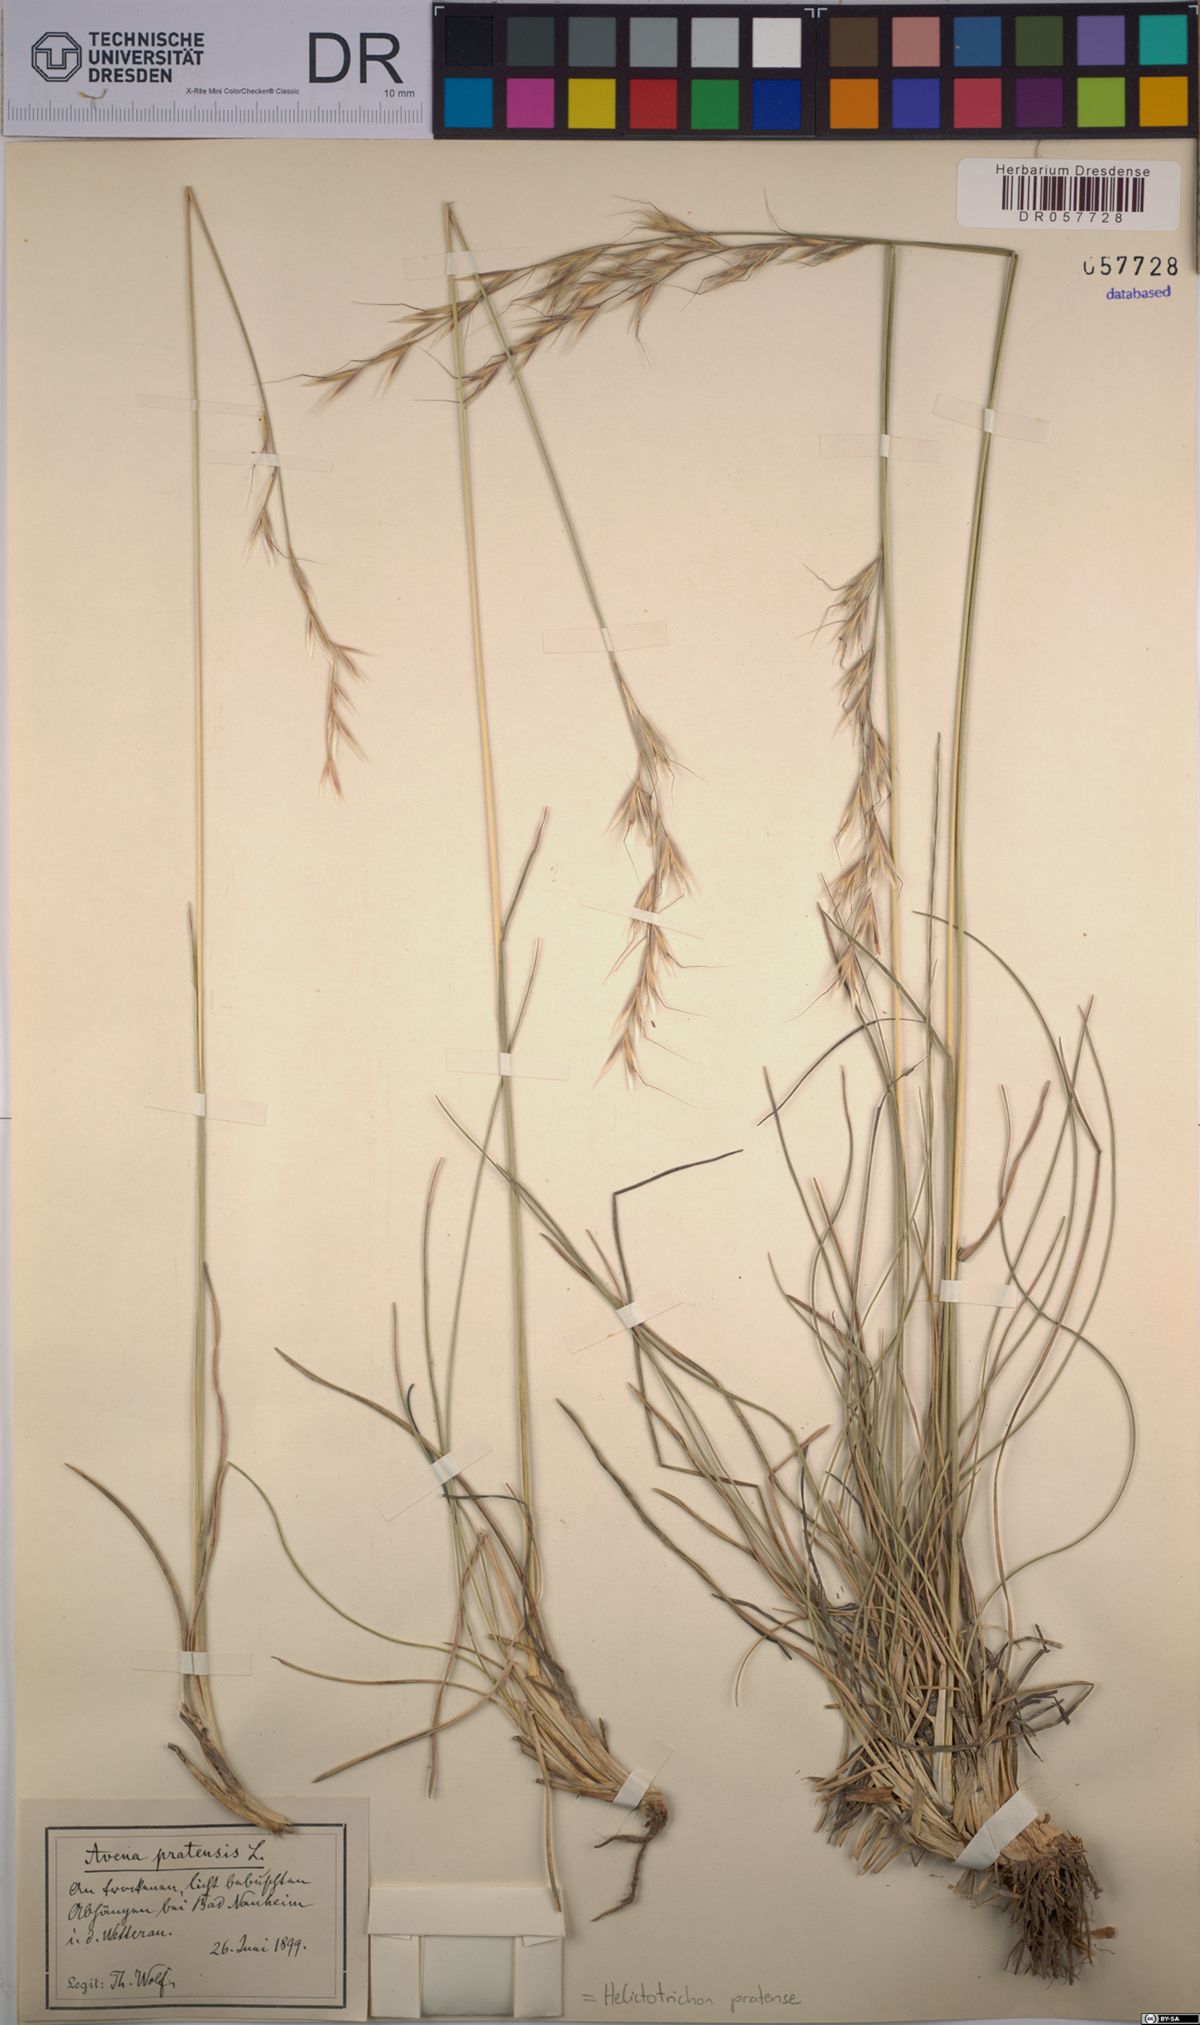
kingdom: Plantae
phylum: Tracheophyta
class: Liliopsida
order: Poales
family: Poaceae
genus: Helictochloa
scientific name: Helictochloa pratensis
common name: Meadow oat grass
